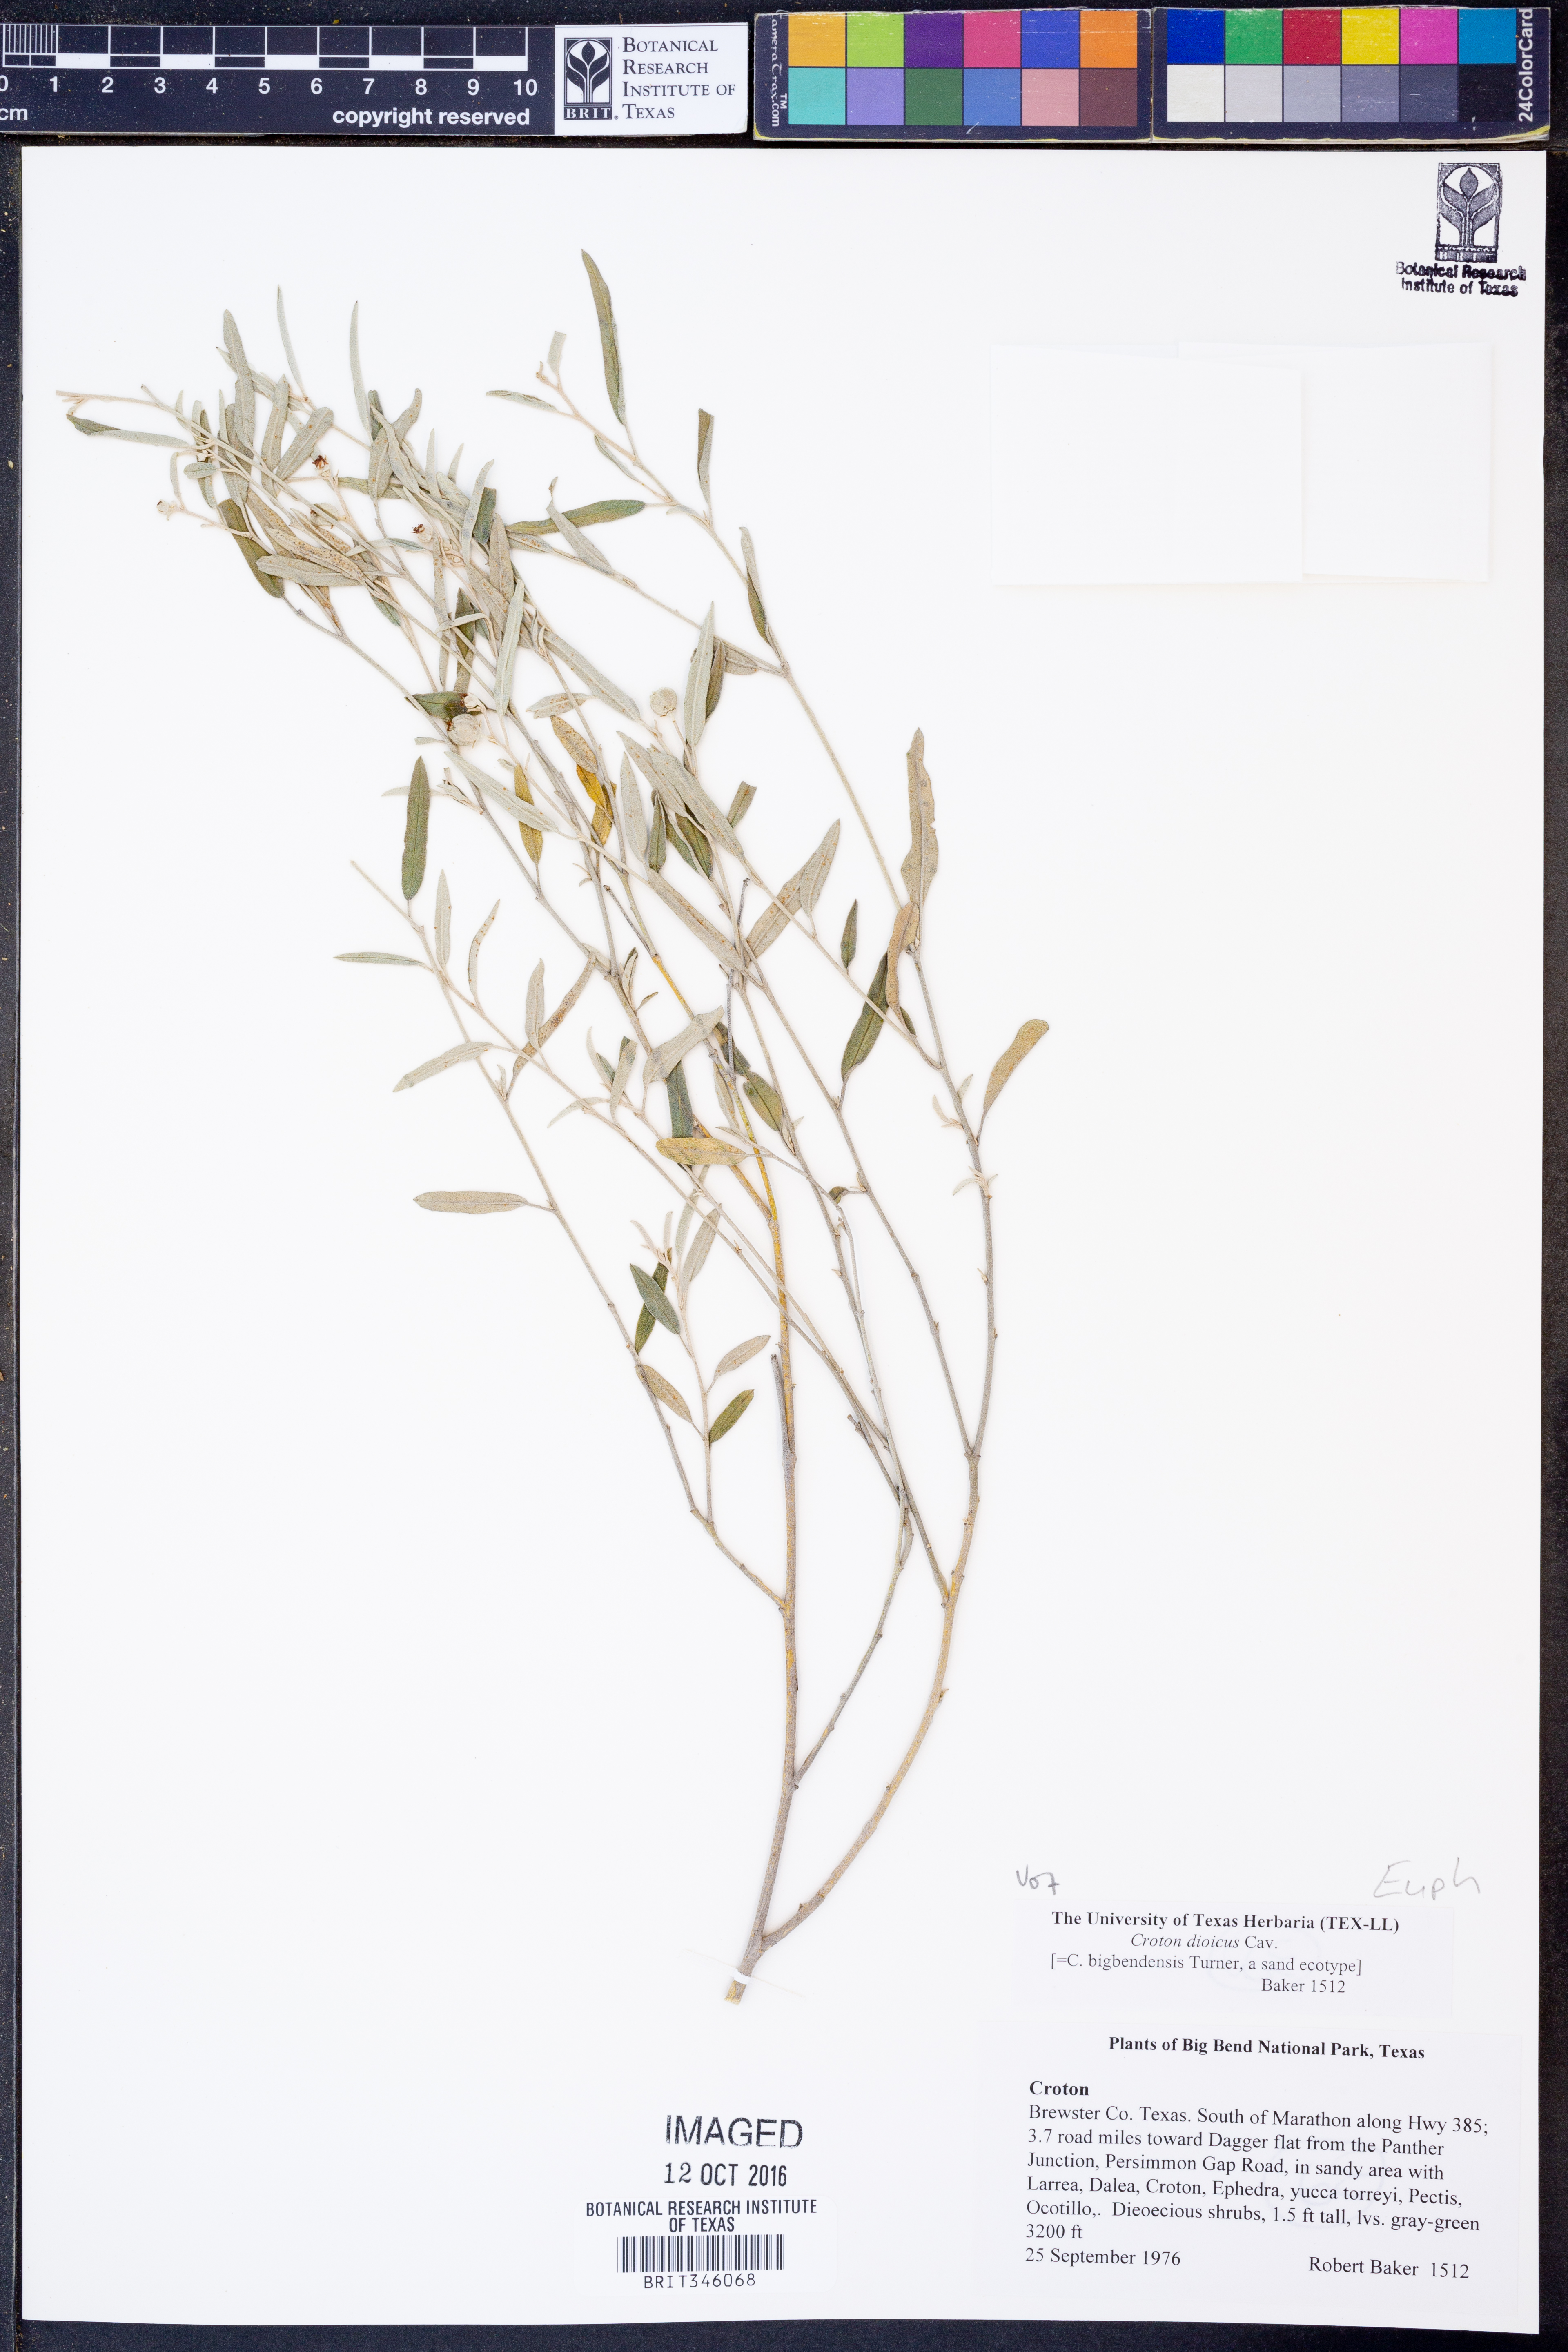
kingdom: Plantae
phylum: Tracheophyta
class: Magnoliopsida
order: Malpighiales
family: Euphorbiaceae
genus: Croton
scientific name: Croton dioicus
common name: Grassland croton
